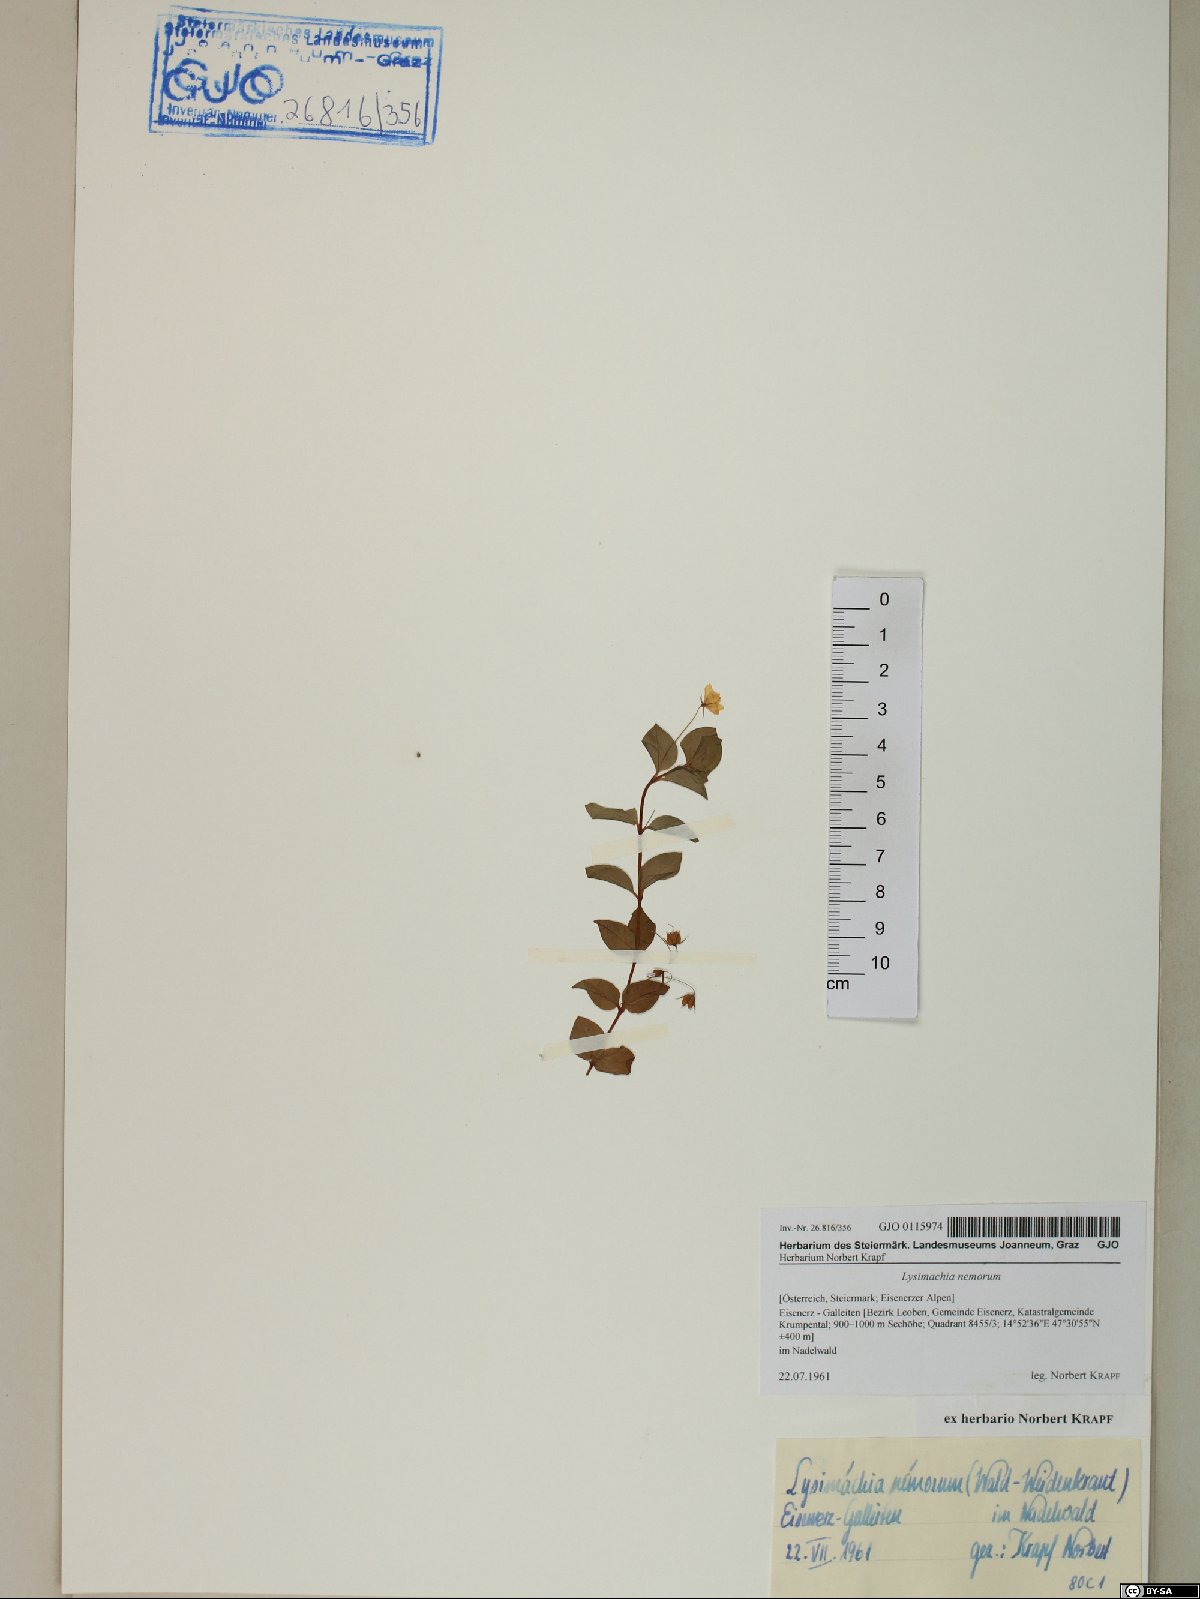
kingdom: Plantae
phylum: Tracheophyta
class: Magnoliopsida
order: Ericales
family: Primulaceae
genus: Lysimachia
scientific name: Lysimachia nemorum
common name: Yellow pimpernel
